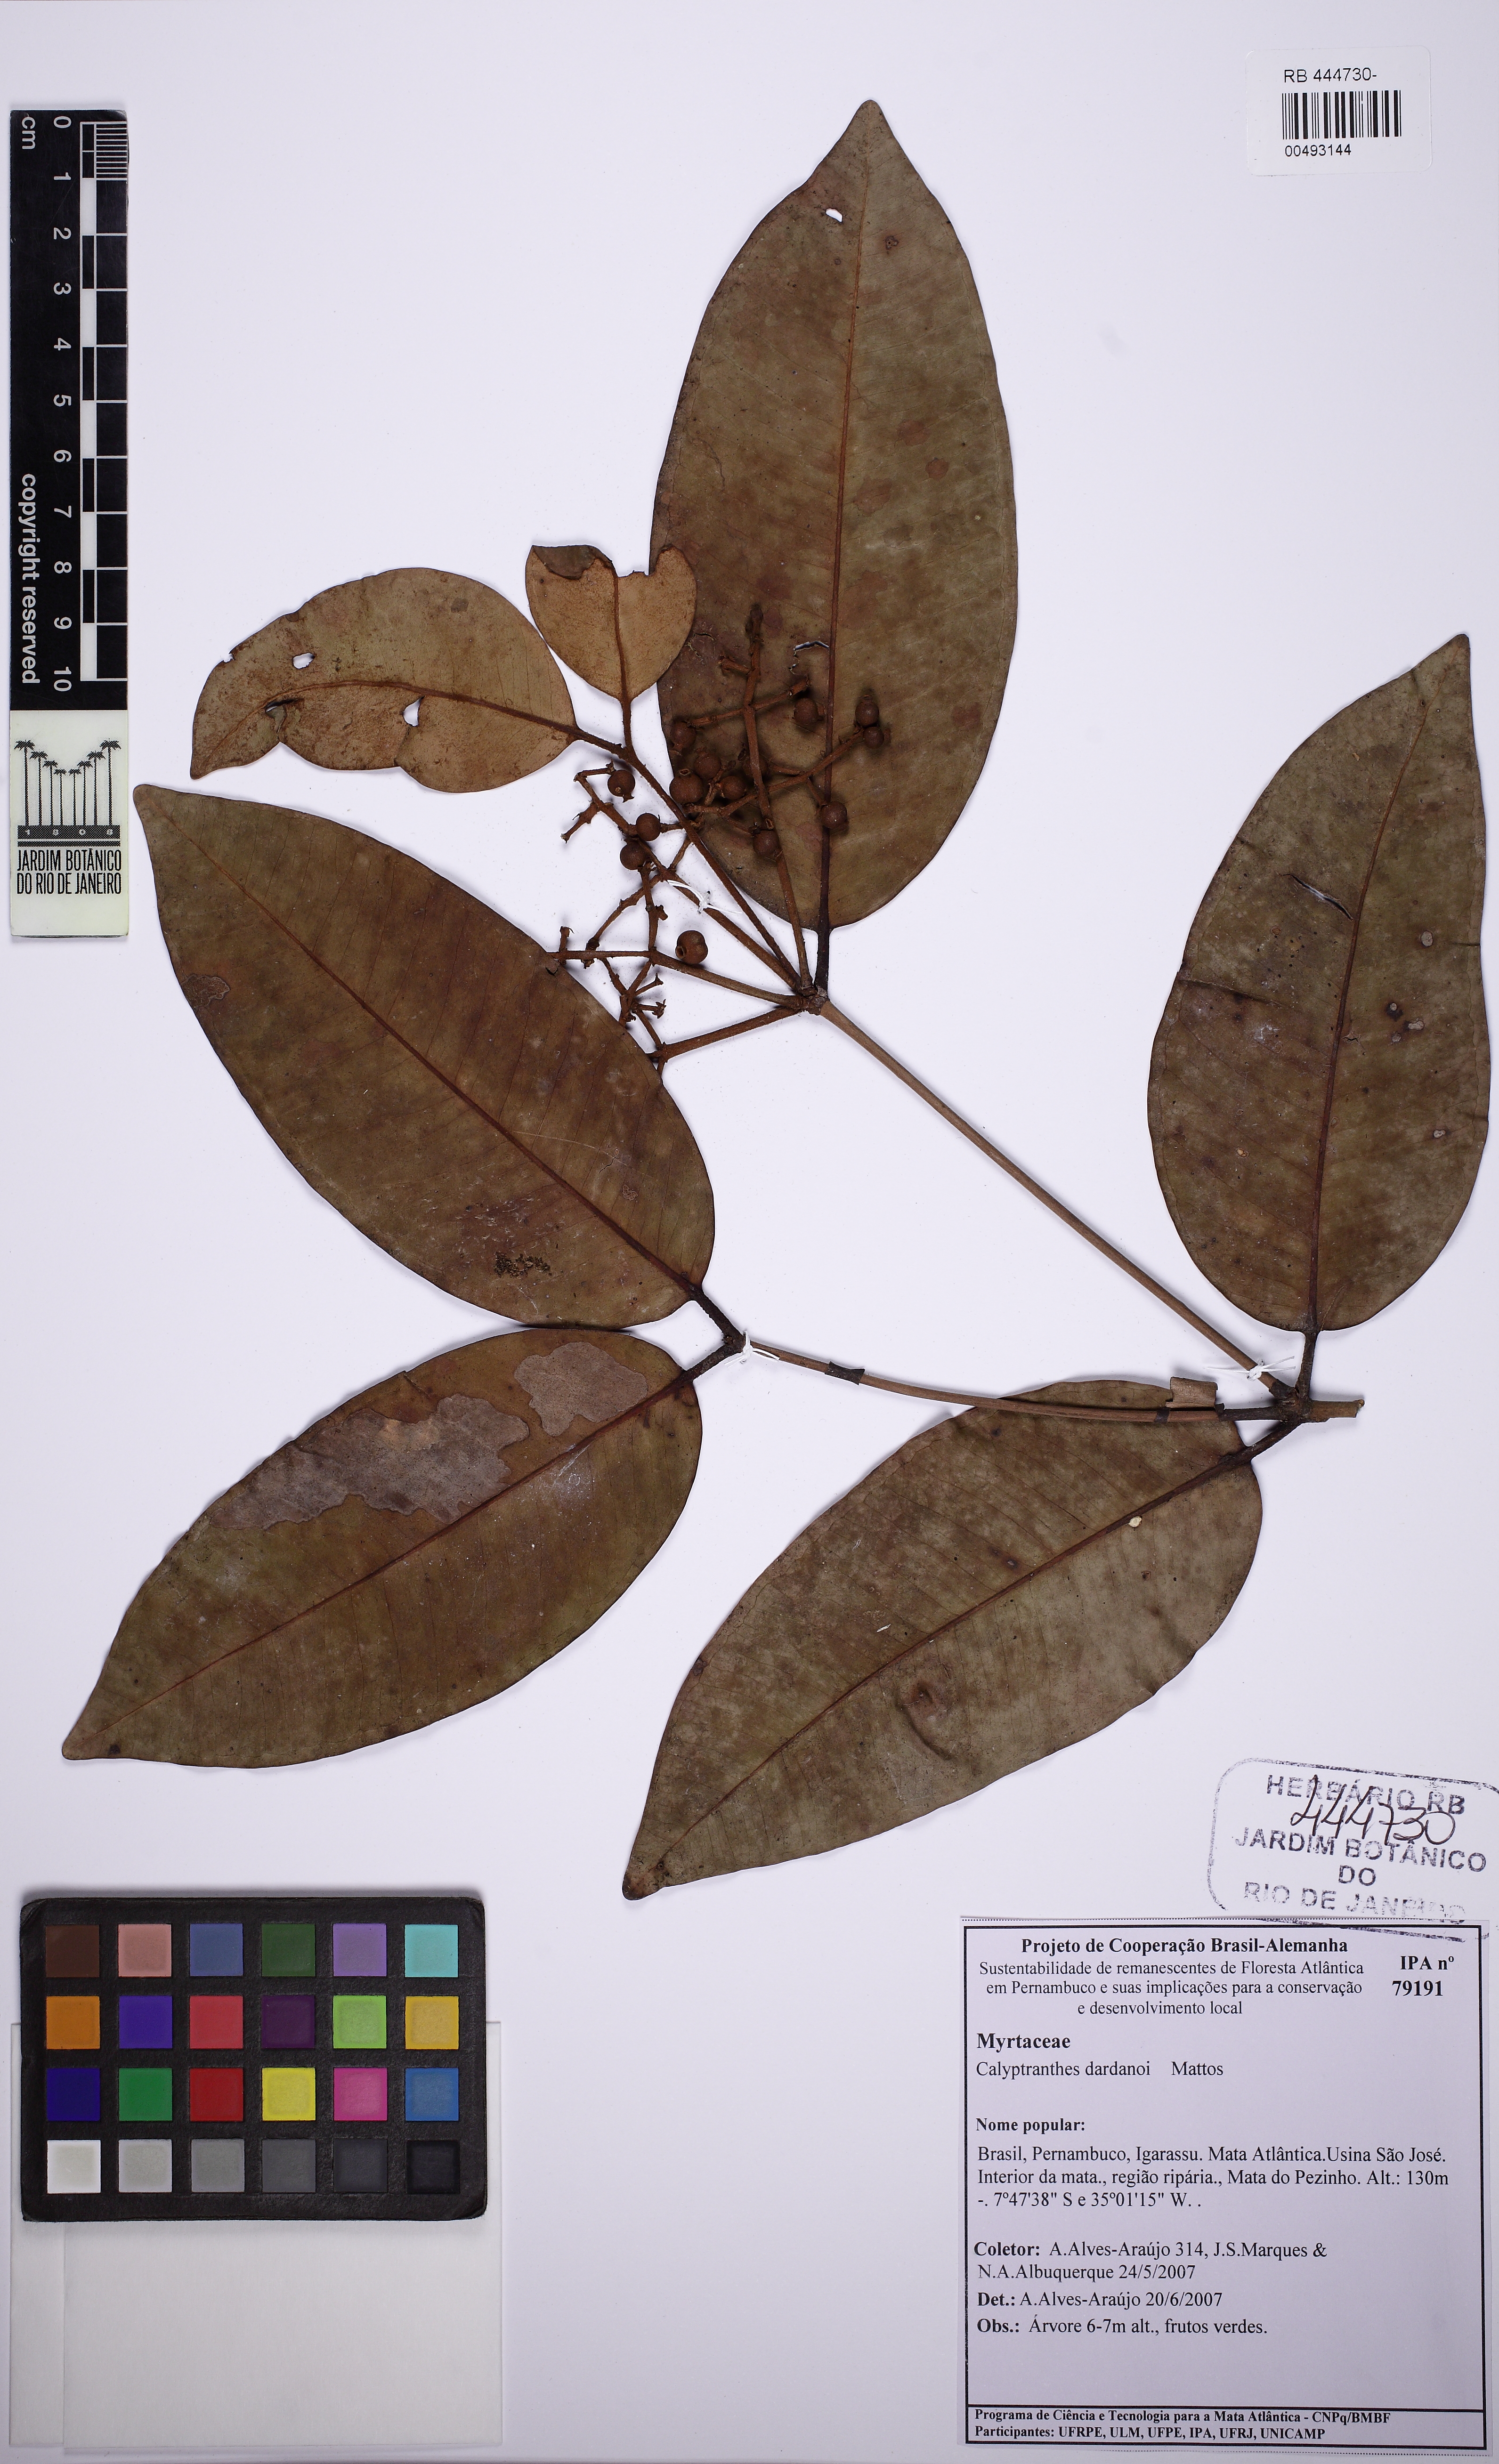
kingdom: Plantae
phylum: Tracheophyta
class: Magnoliopsida
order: Myrtales
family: Myrtaceae
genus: Calyptranthes
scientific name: Calyptranthes dardanoi
